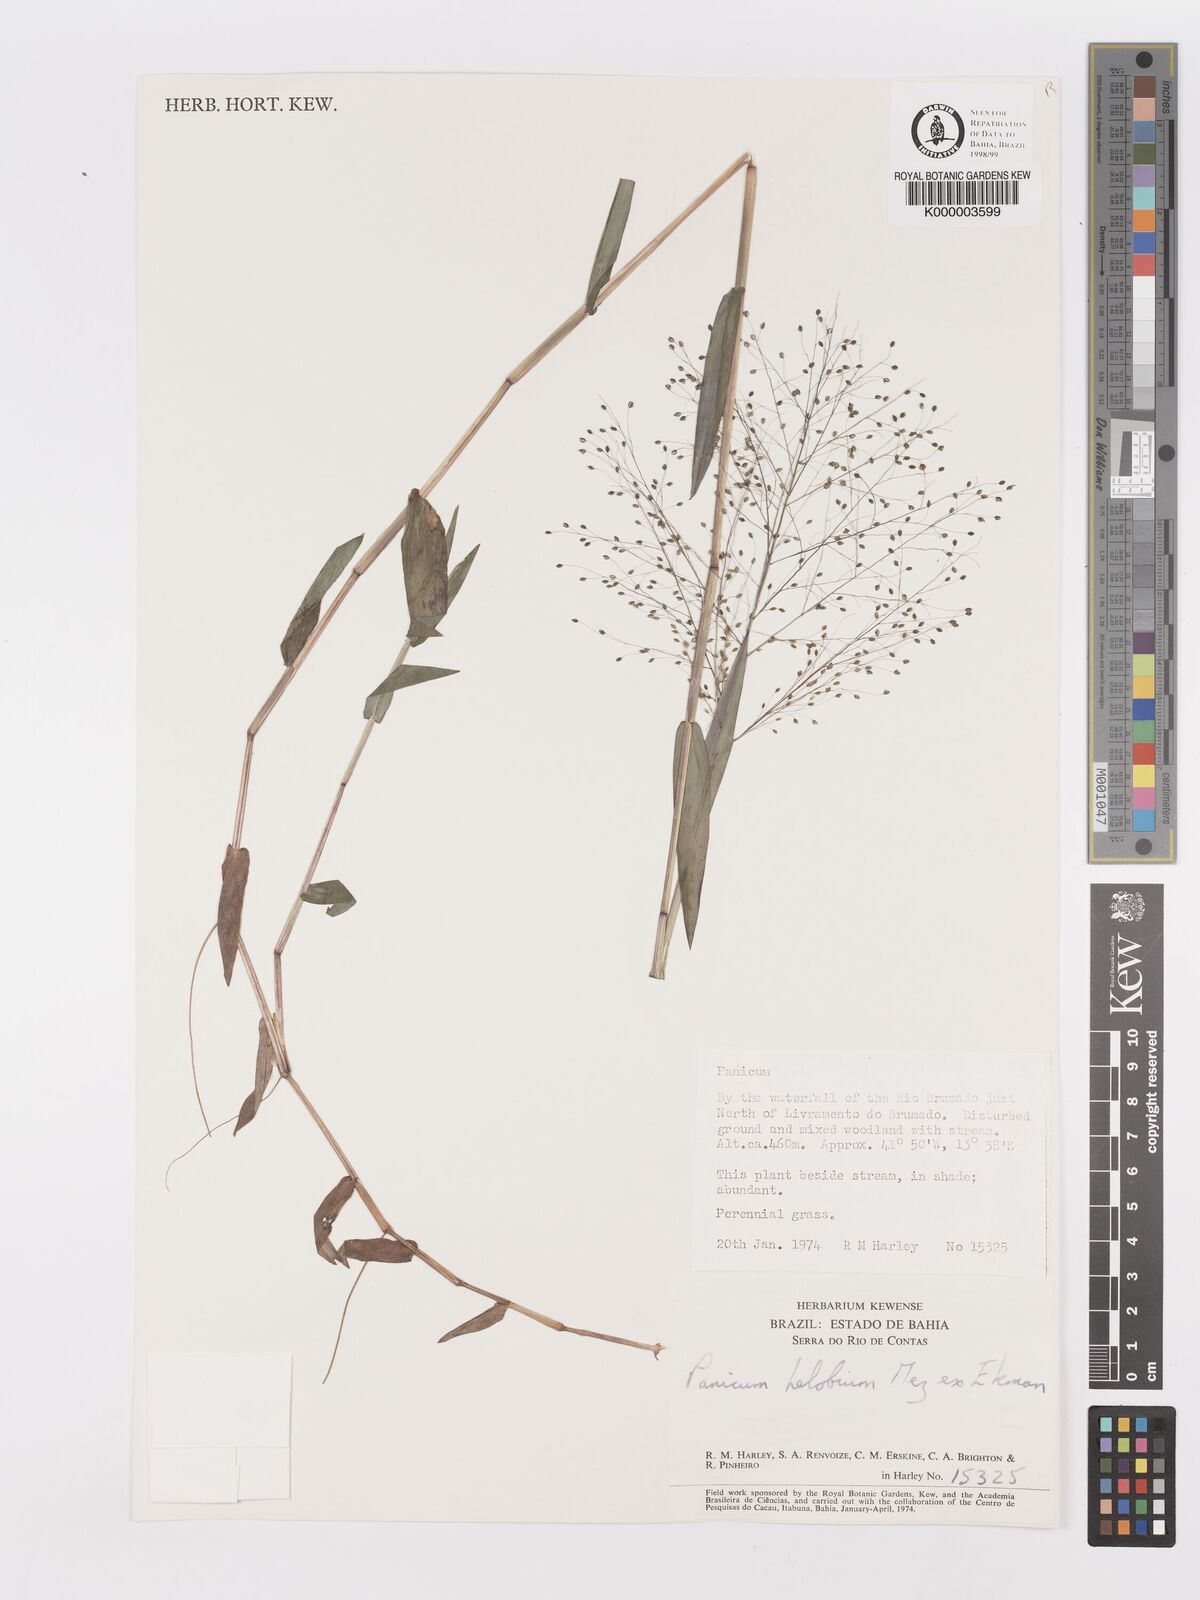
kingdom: Plantae
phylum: Tracheophyta
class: Liliopsida
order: Poales
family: Poaceae
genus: Trichanthecium
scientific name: Trichanthecium schwackeanum
